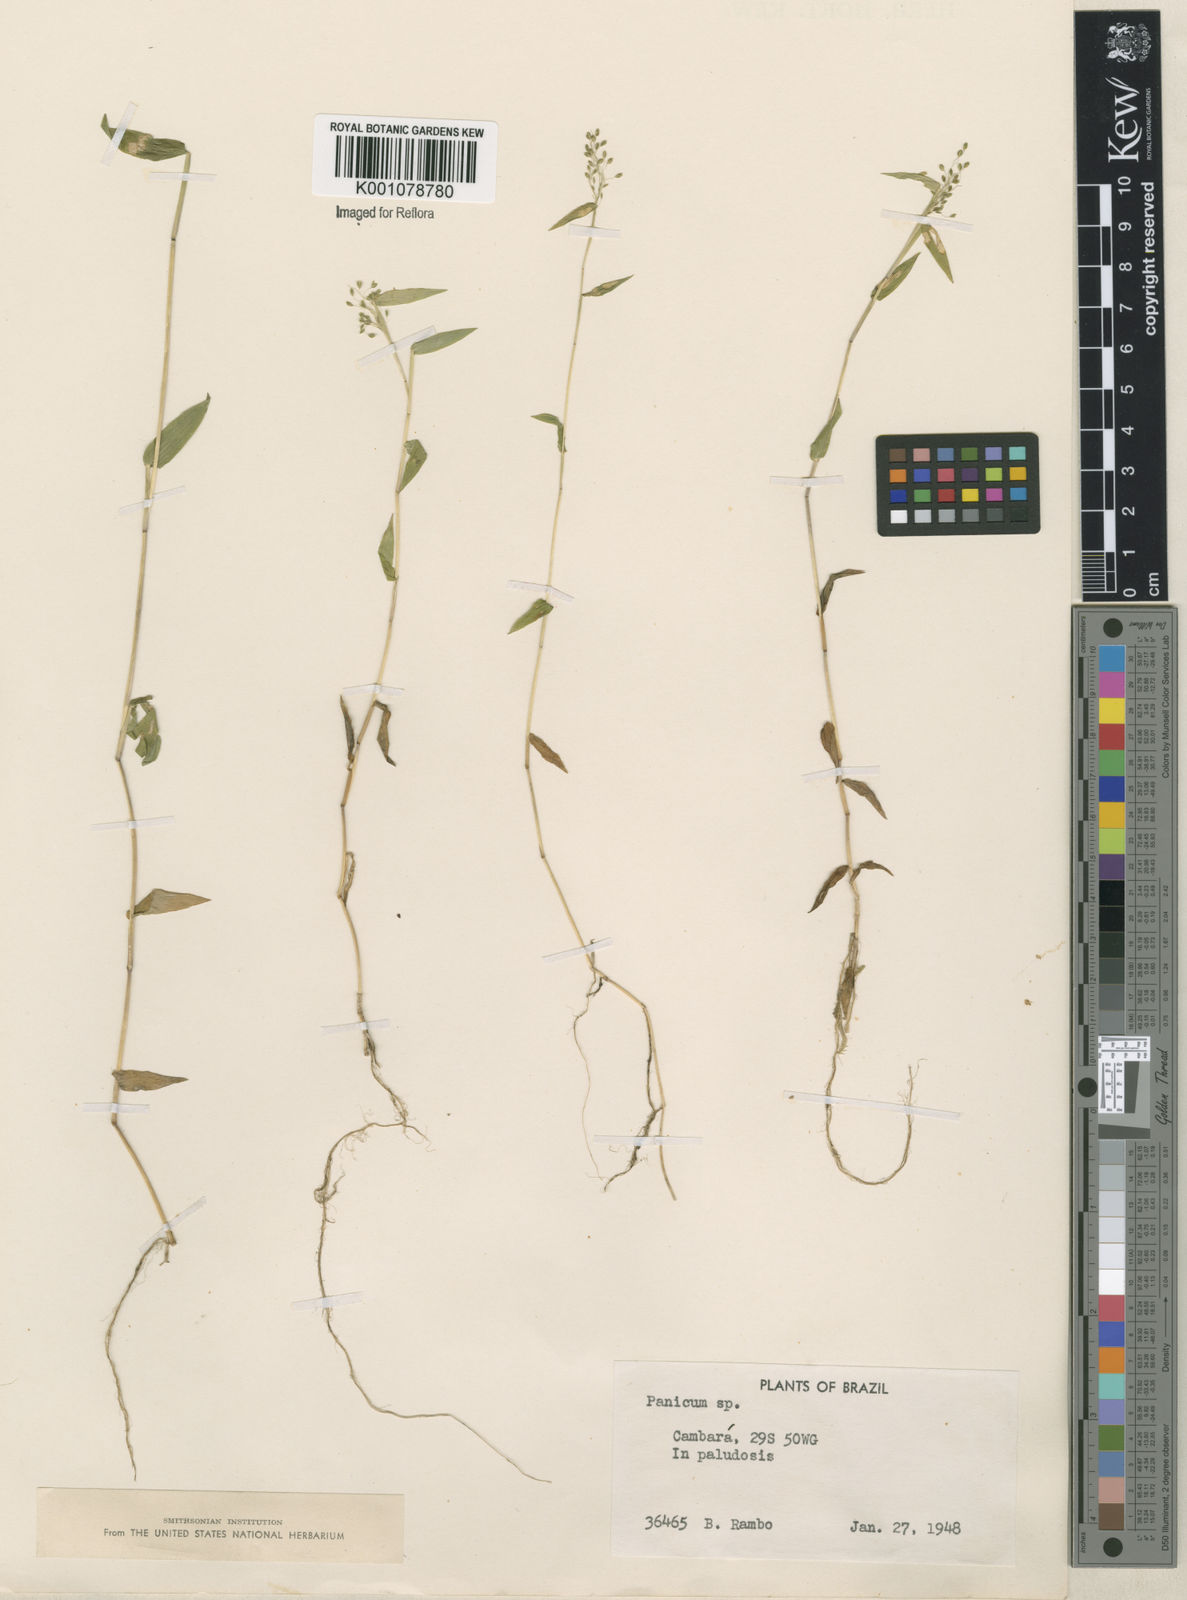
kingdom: Plantae
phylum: Tracheophyta
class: Liliopsida
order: Poales
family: Poaceae
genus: Panicum
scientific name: Panicum
